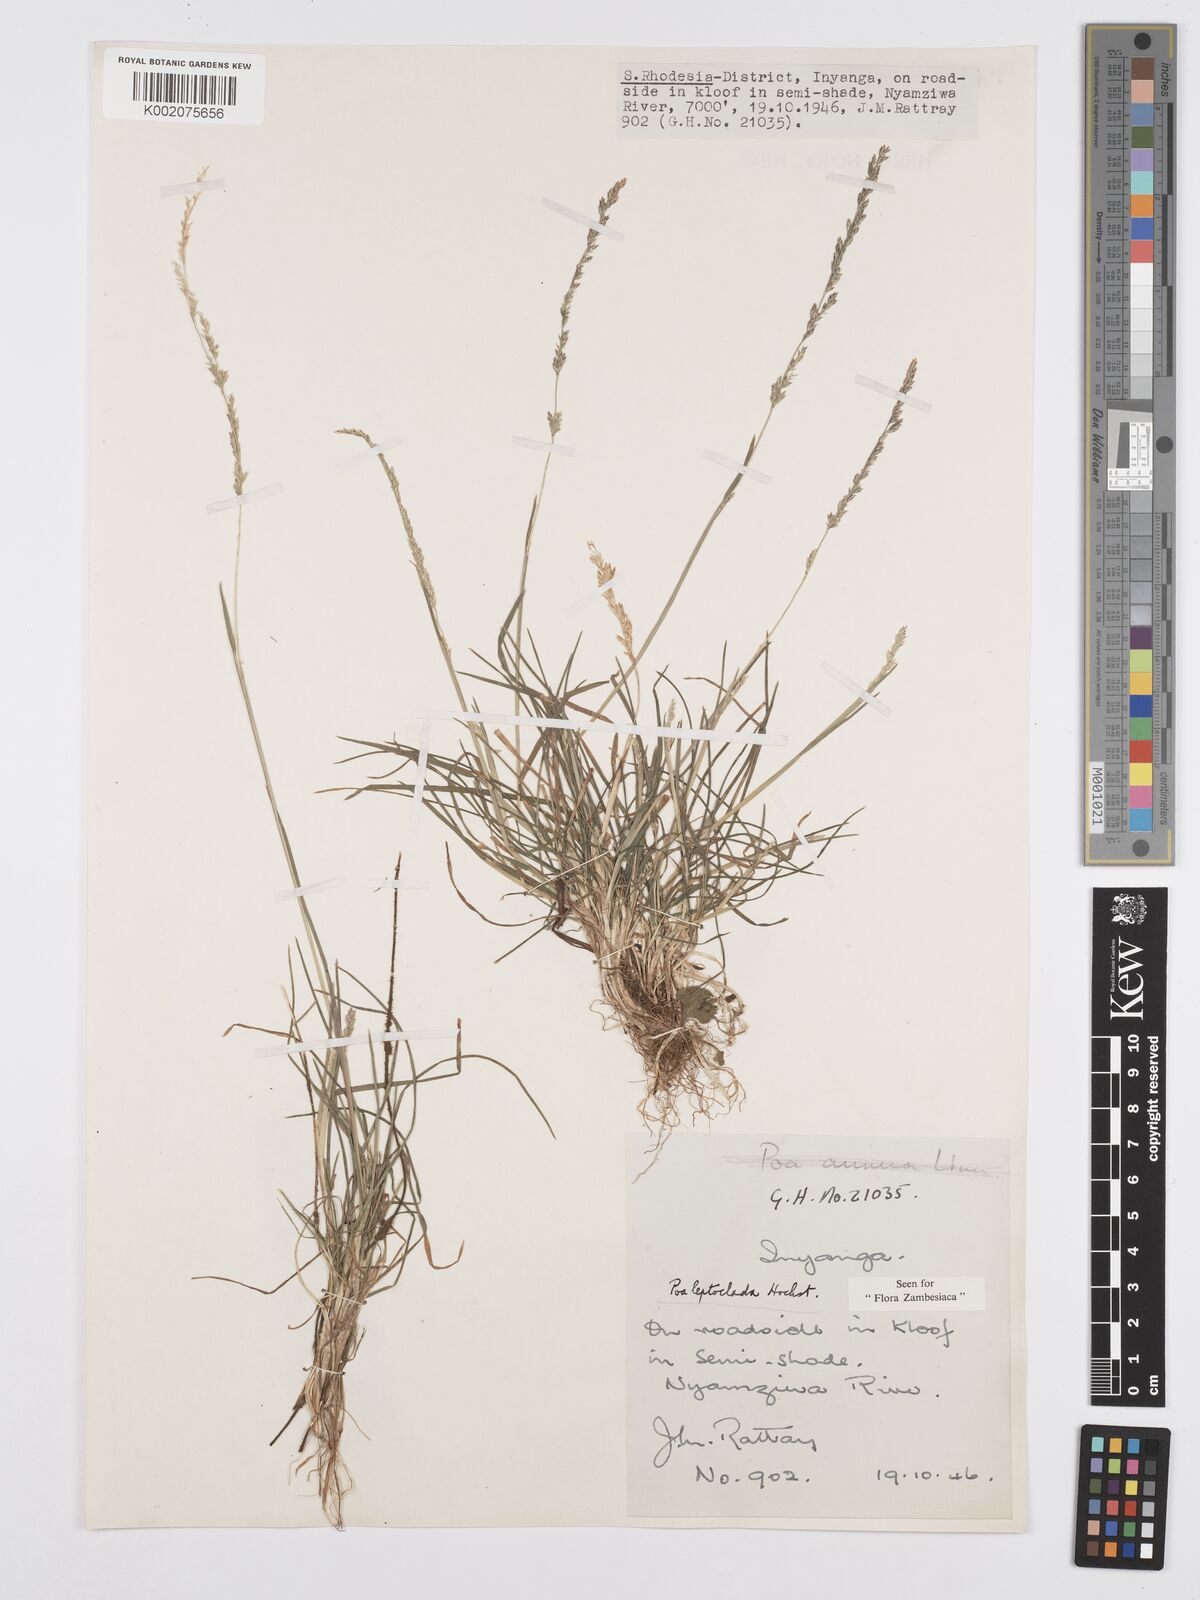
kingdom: Plantae
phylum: Tracheophyta
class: Liliopsida
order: Poales
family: Poaceae
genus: Poa
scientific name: Poa leptoclada
